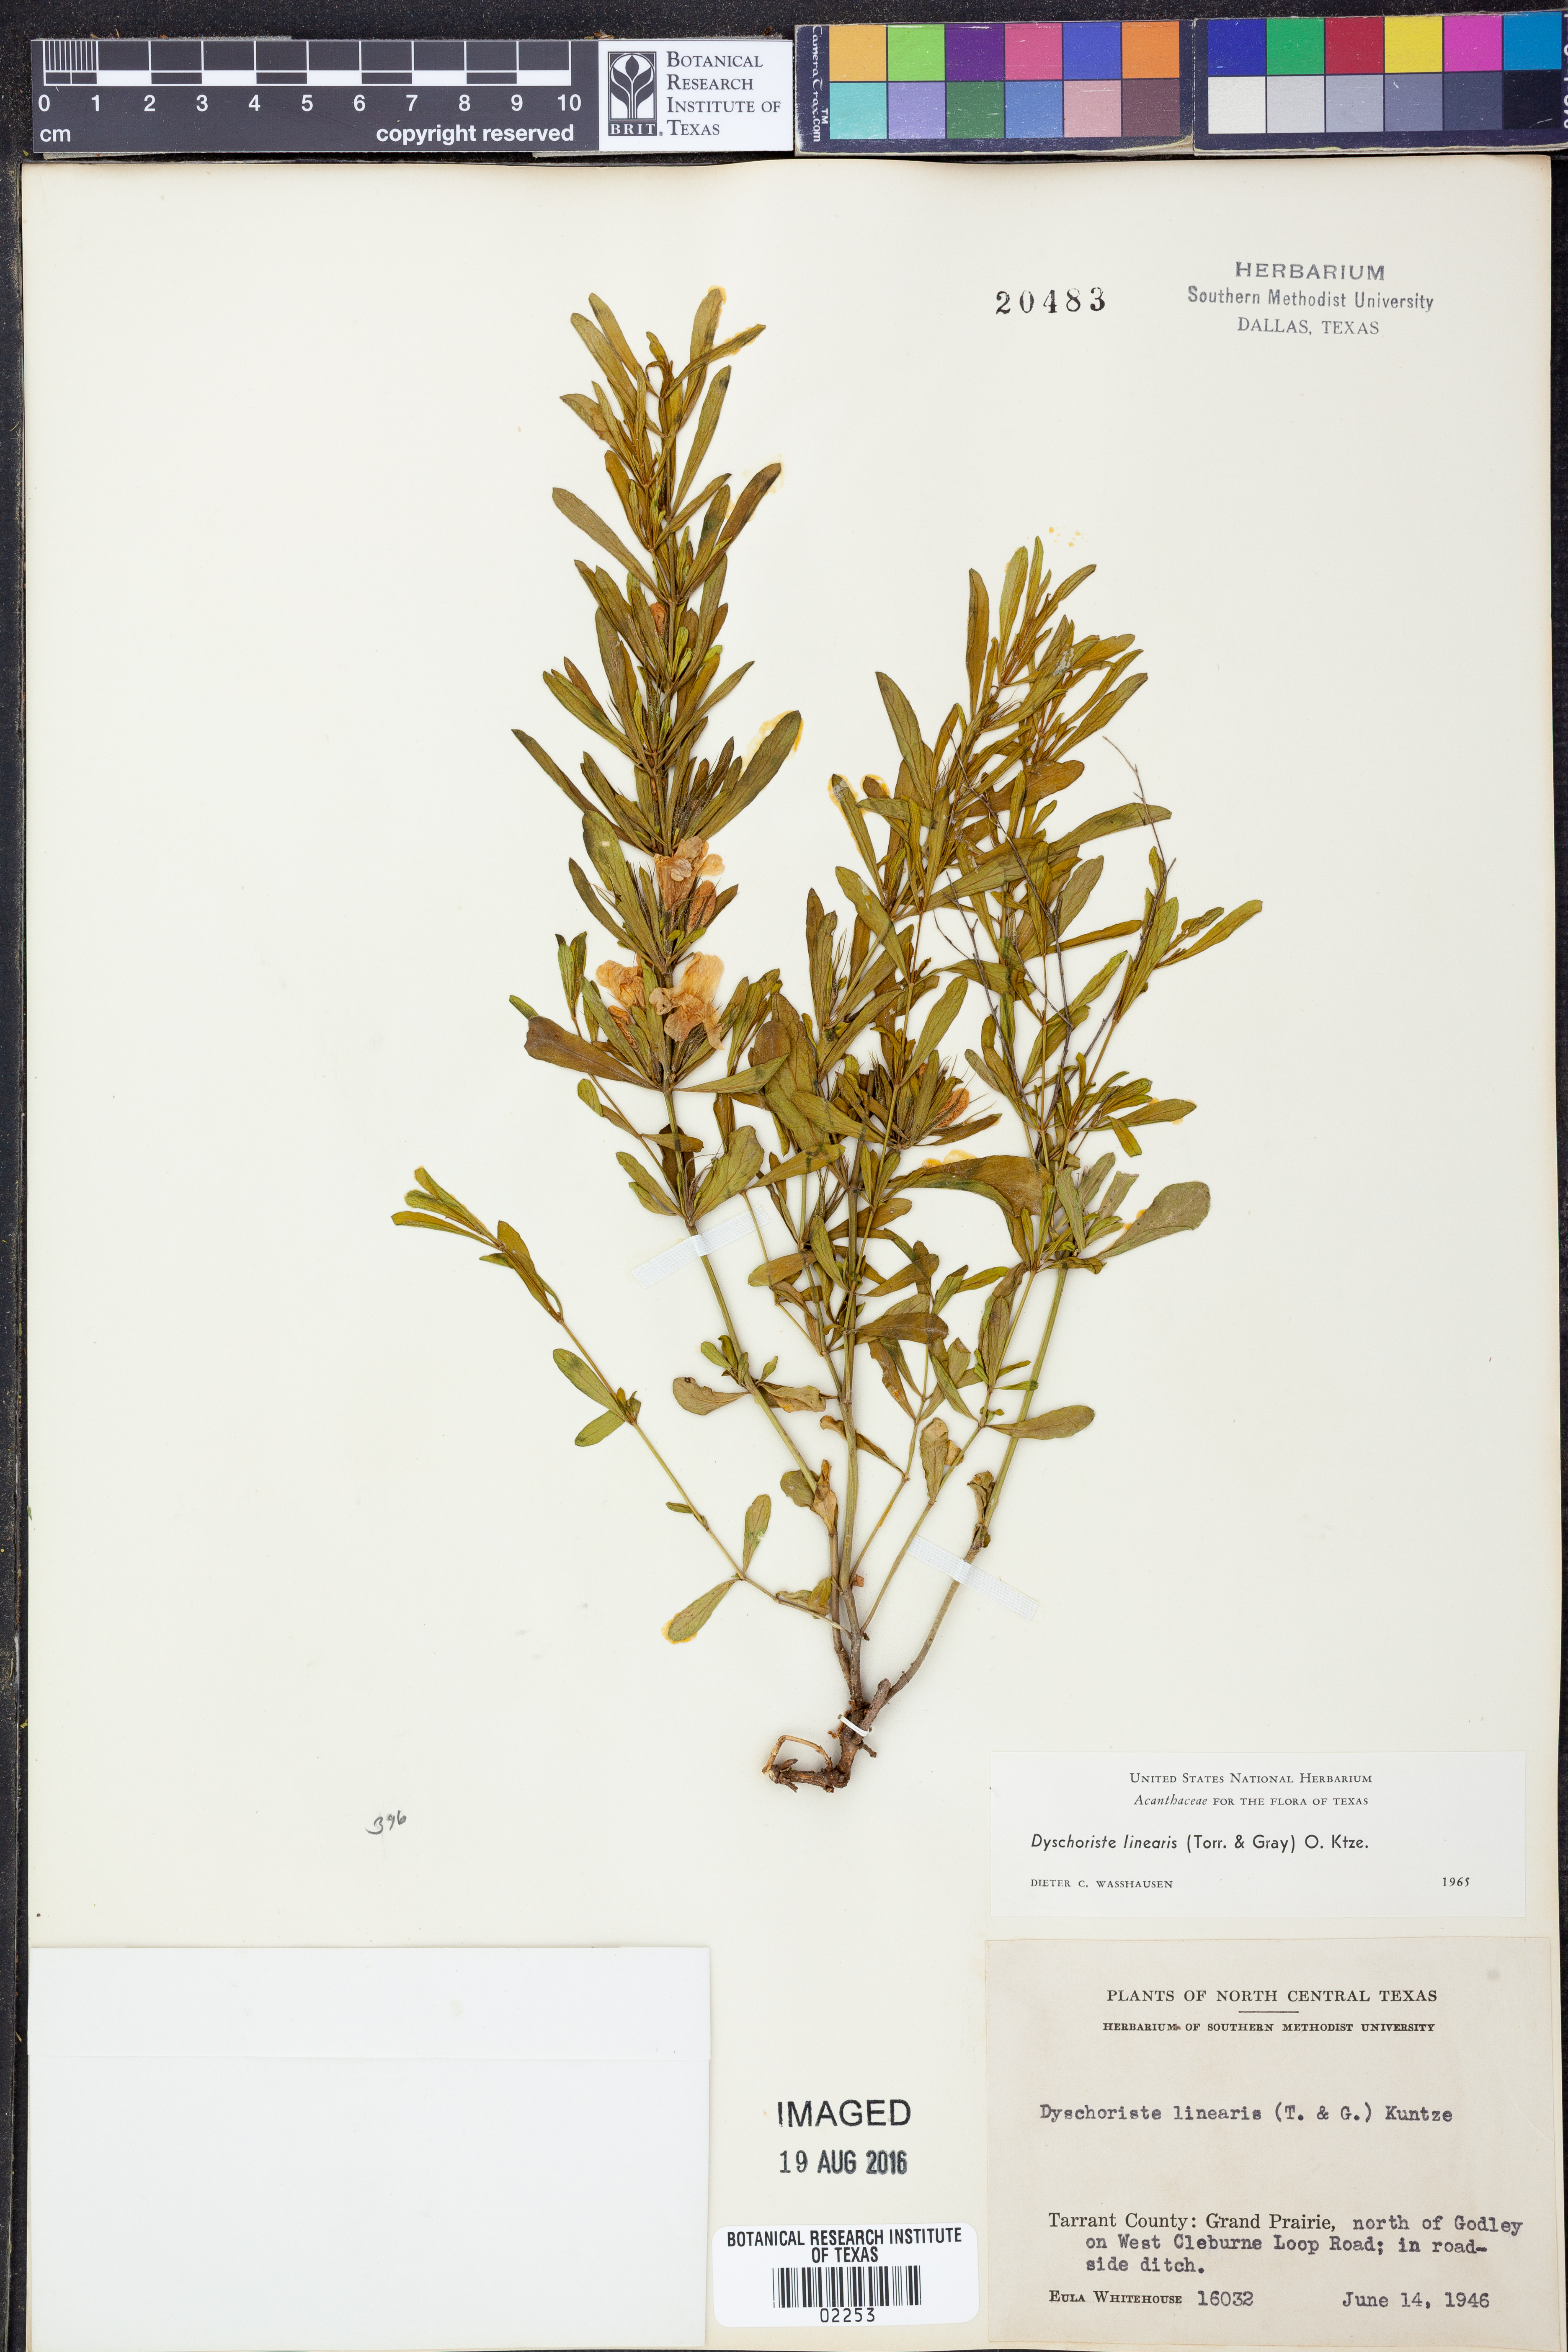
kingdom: Plantae
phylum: Tracheophyta
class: Magnoliopsida
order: Lamiales
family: Acanthaceae
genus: Dyschoriste
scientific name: Dyschoriste linearis
